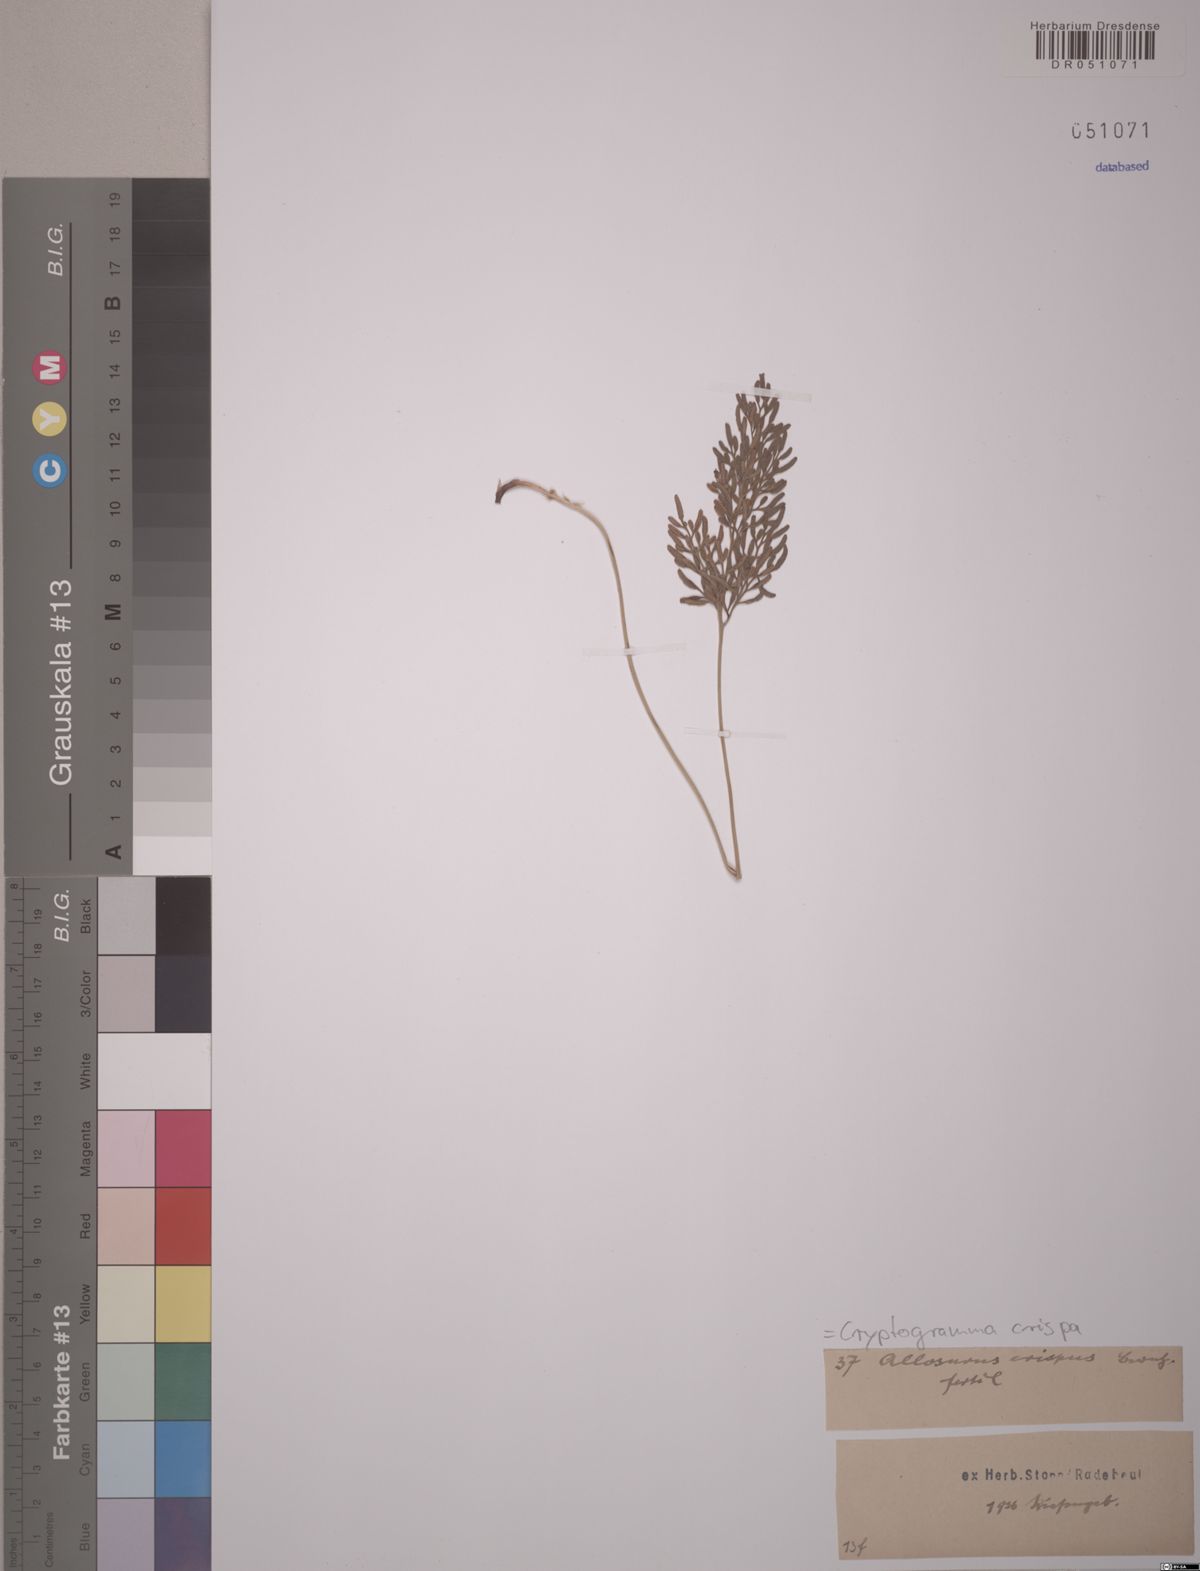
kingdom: Plantae
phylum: Tracheophyta
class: Polypodiopsida
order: Polypodiales
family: Pteridaceae
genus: Cryptogramma
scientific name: Cryptogramma crispa
